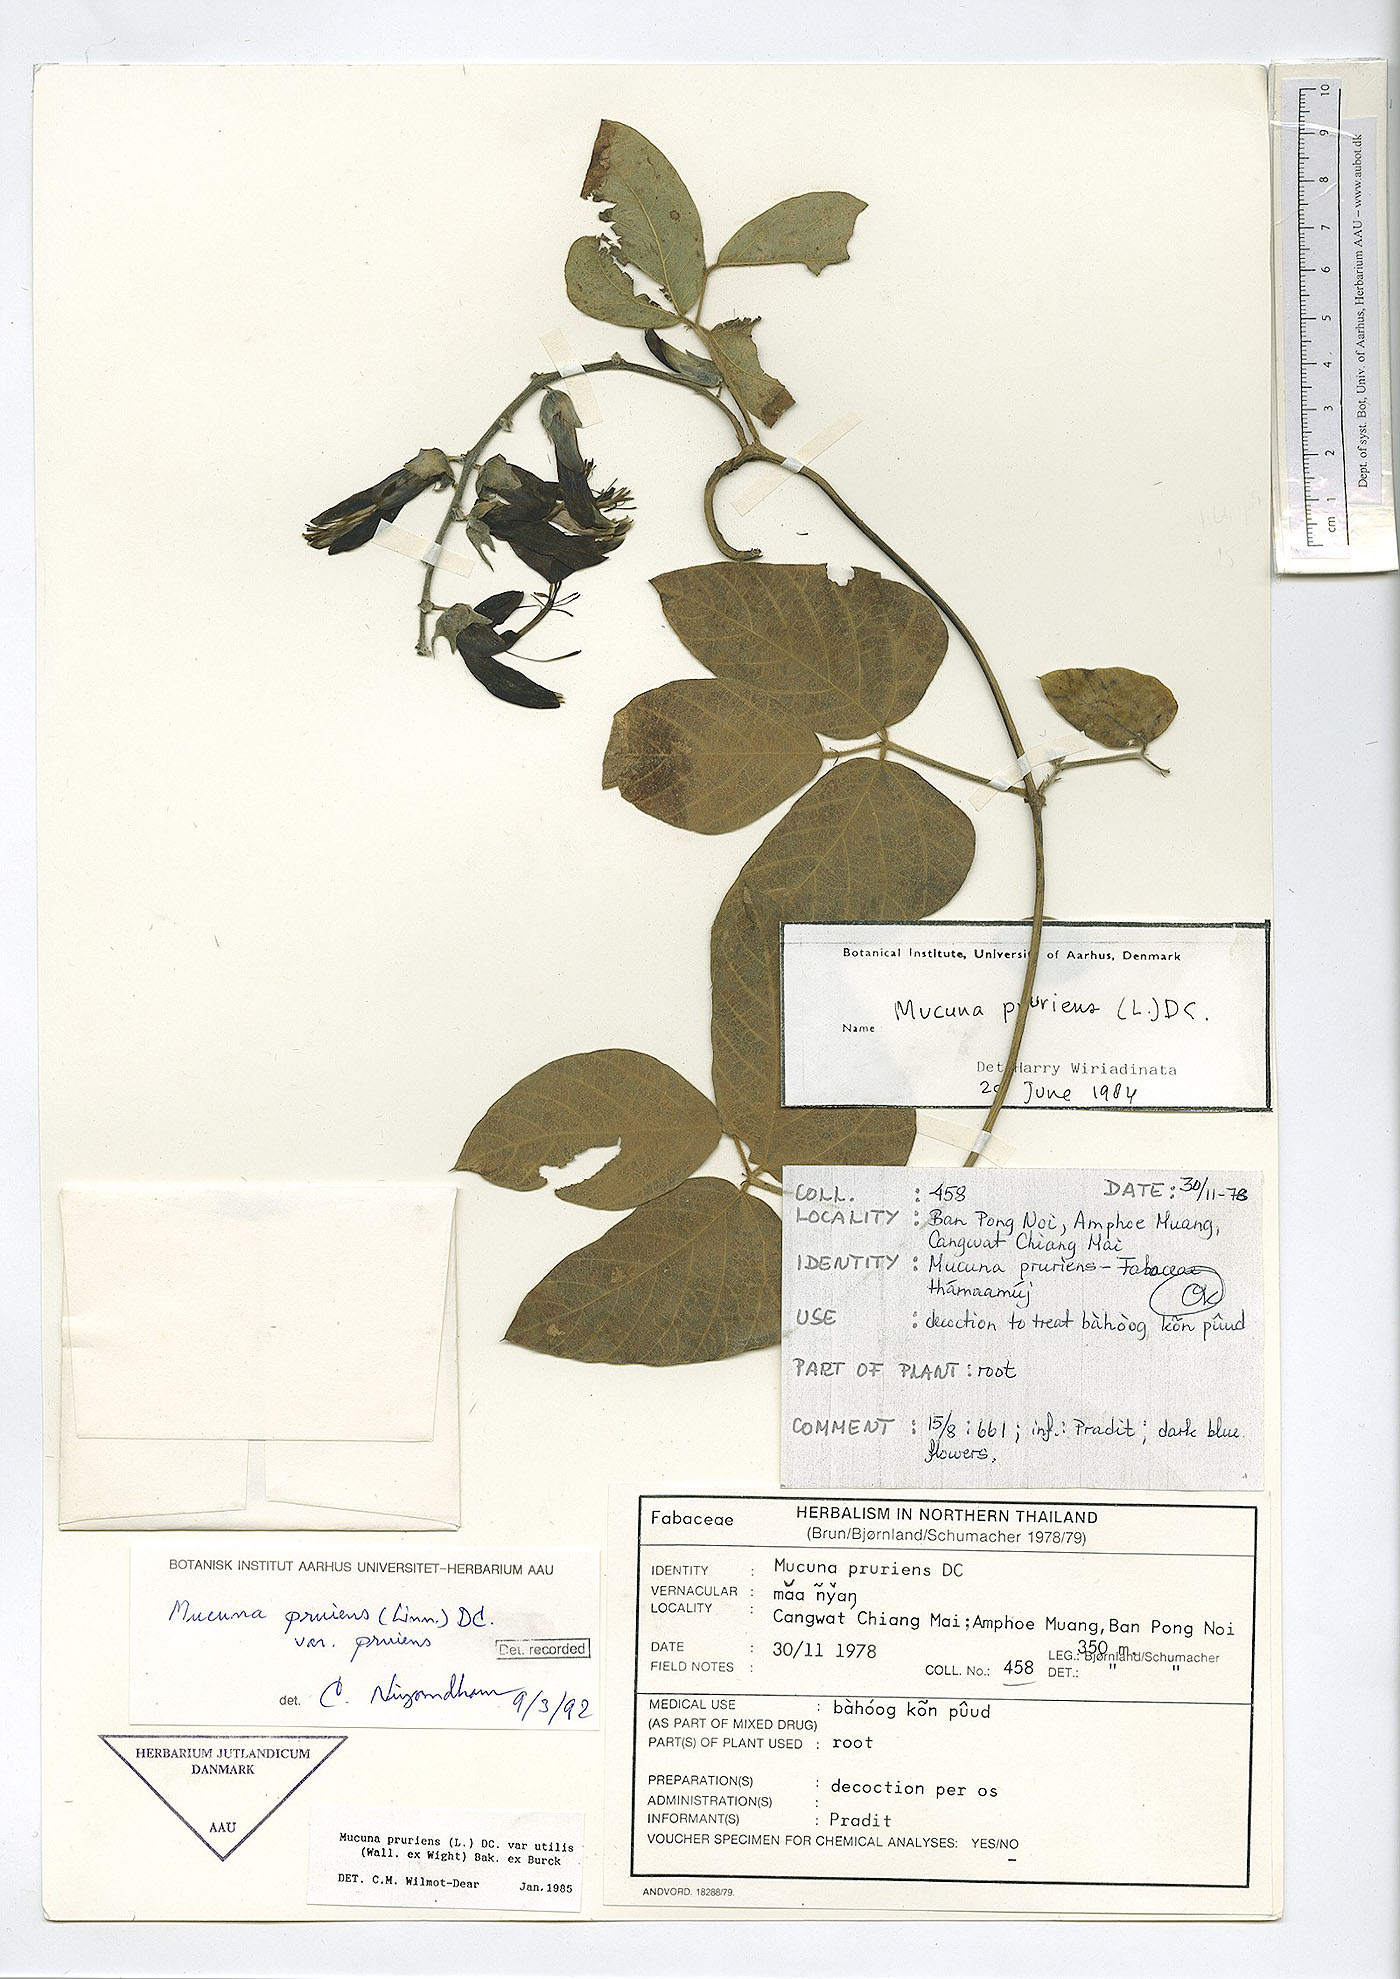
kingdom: Plantae
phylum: Tracheophyta
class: Magnoliopsida
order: Fabales
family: Fabaceae
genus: Mucuna
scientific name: Mucuna pruriens
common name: Cow-itch
